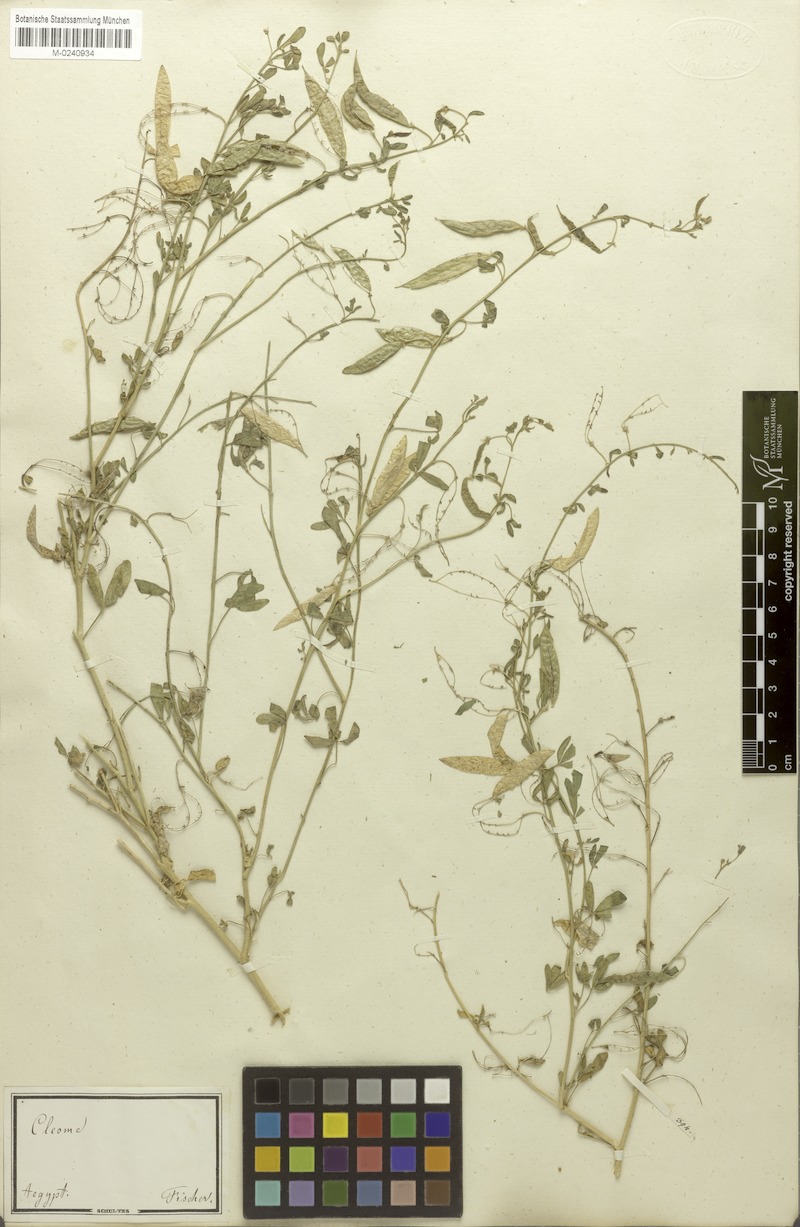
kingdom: Plantae
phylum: Tracheophyta
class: Magnoliopsida
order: Brassicales
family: Cleomaceae
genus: Cleome
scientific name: Cleome arabica
